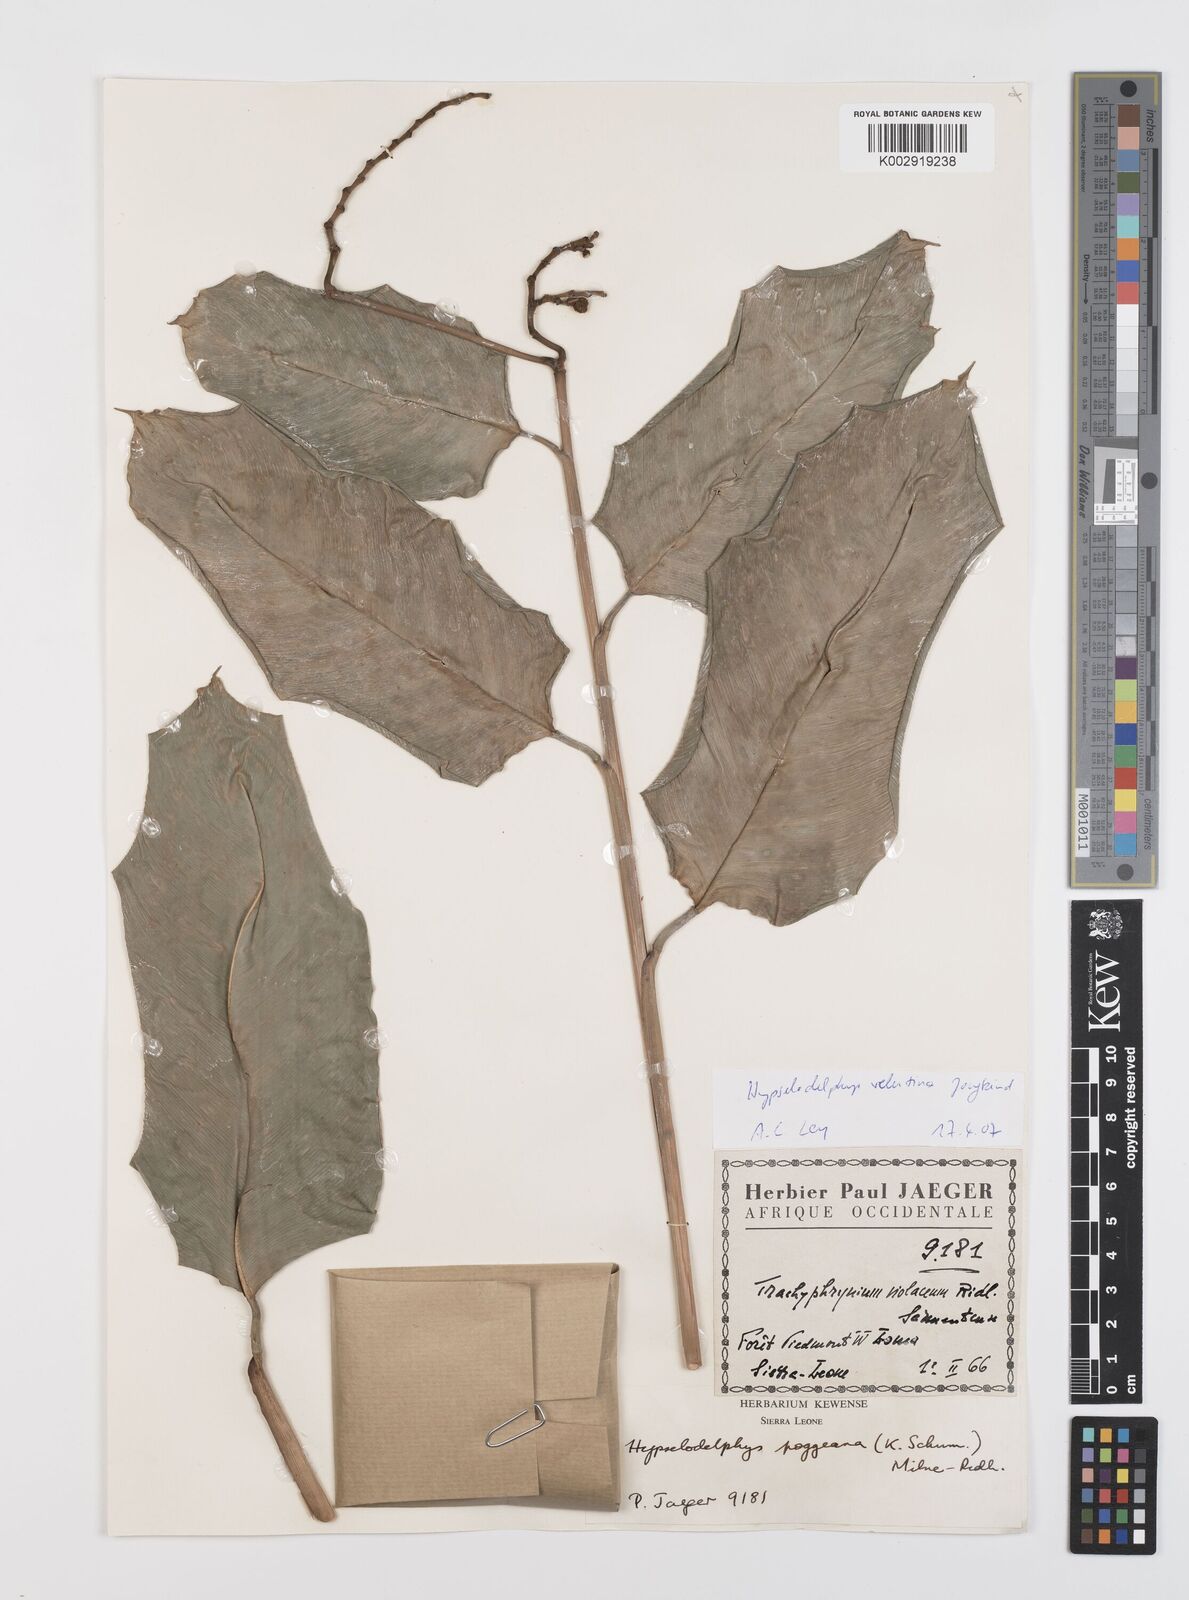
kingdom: Plantae
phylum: Tracheophyta
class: Liliopsida
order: Zingiberales
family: Marantaceae
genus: Hypselodelphys
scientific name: Hypselodelphys velutina
